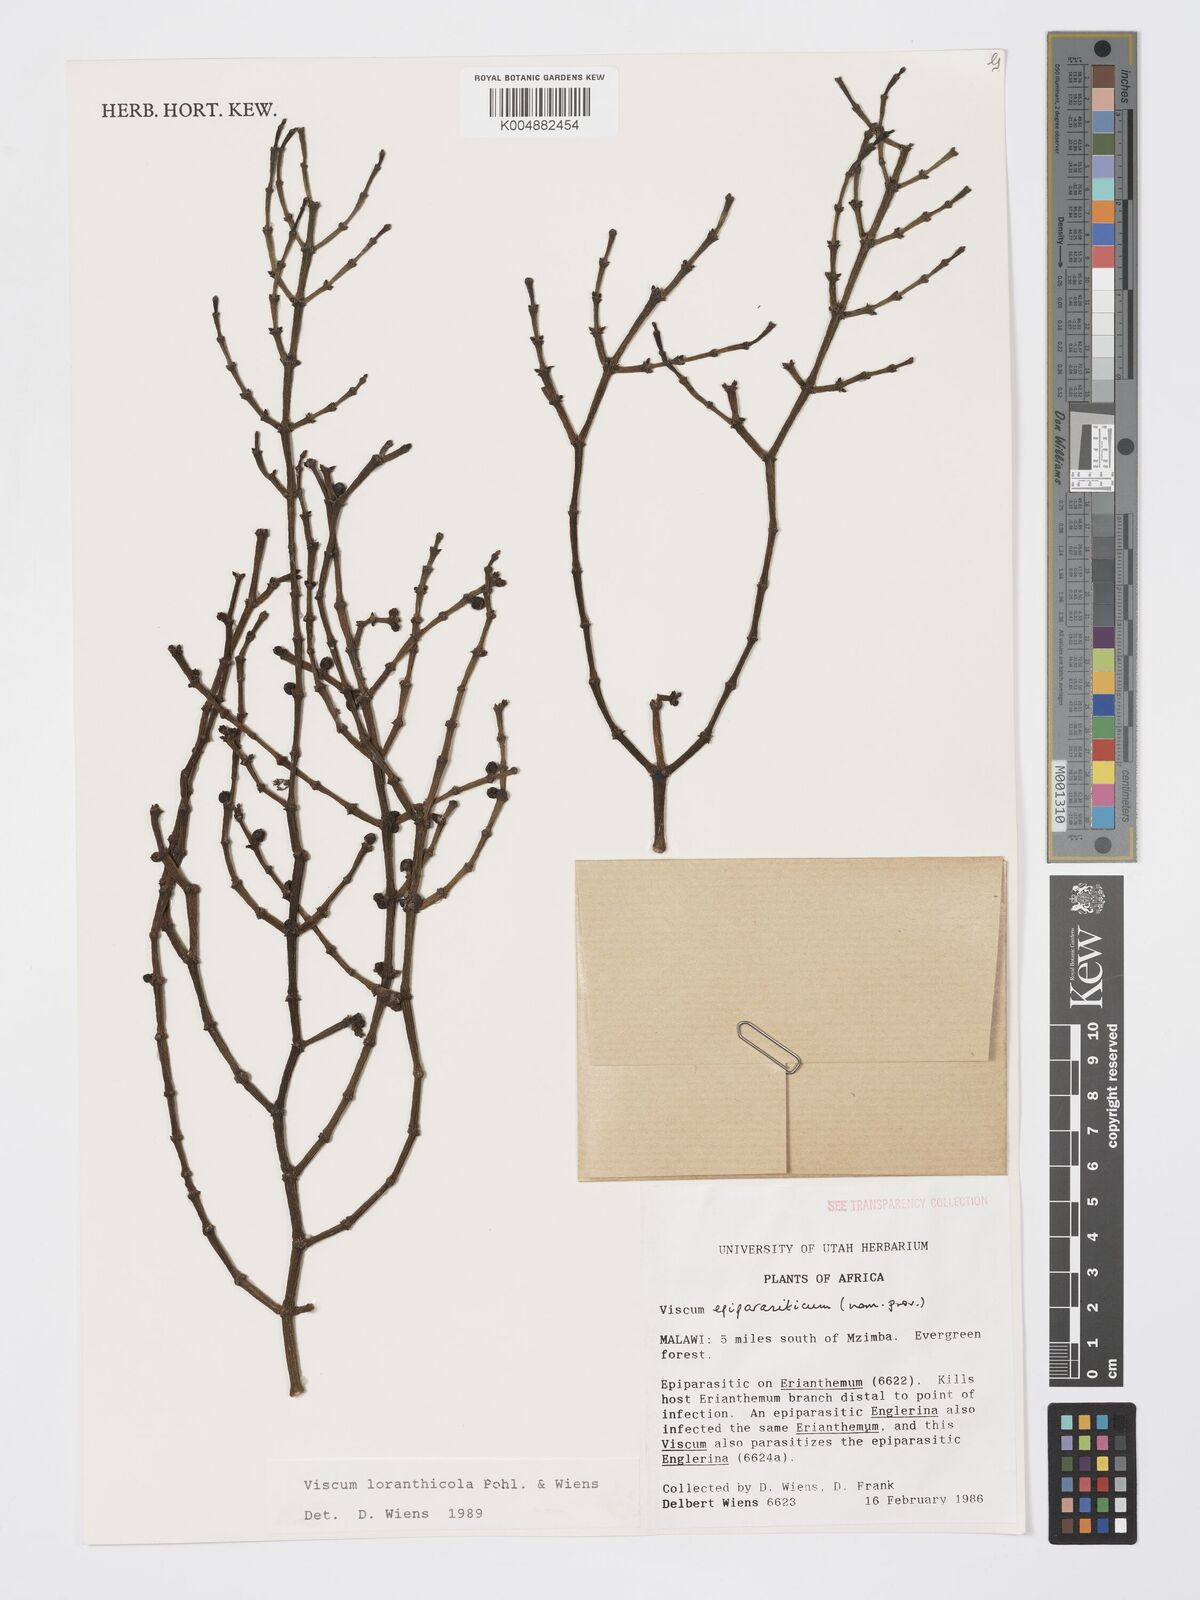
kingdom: Plantae
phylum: Tracheophyta
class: Magnoliopsida
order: Santalales
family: Viscaceae
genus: Viscum
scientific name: Viscum loranthicola
